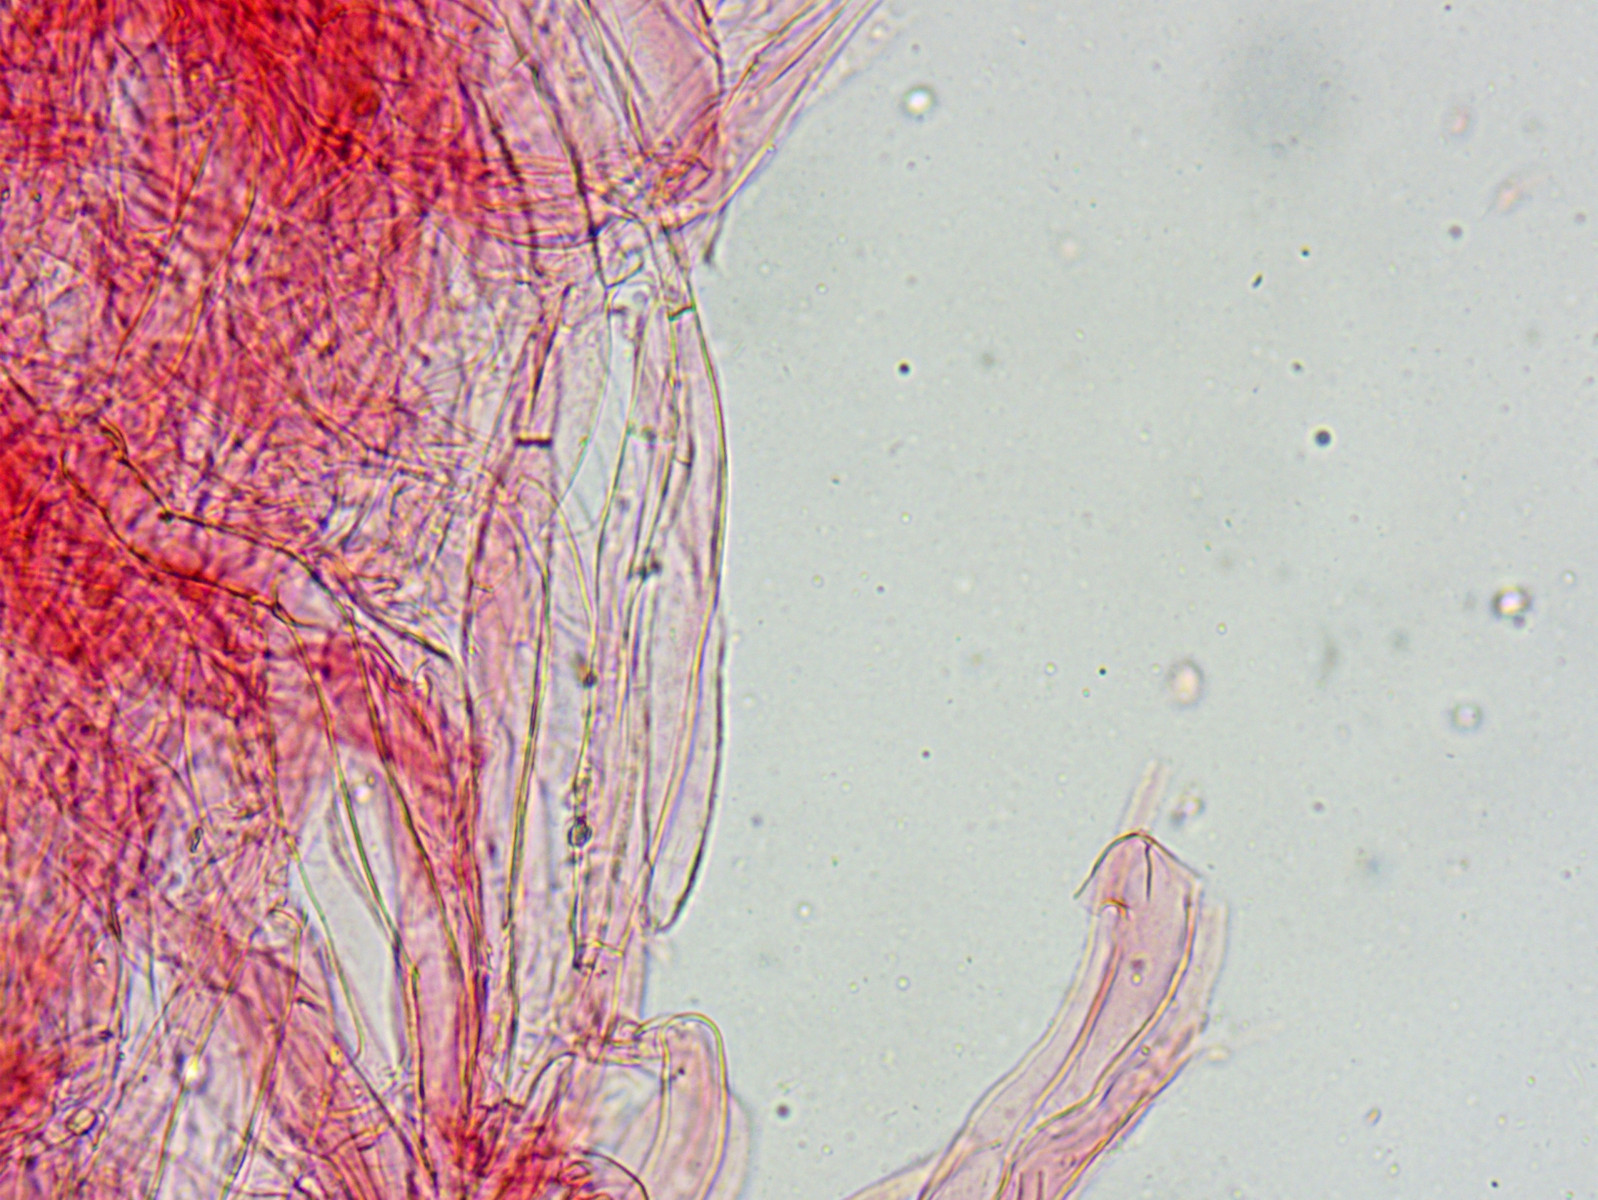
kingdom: Fungi
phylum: Basidiomycota
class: Agaricomycetes
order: Agaricales
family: Porotheleaceae
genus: Phloeomana
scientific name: Phloeomana minutula
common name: bleg huesvamp
